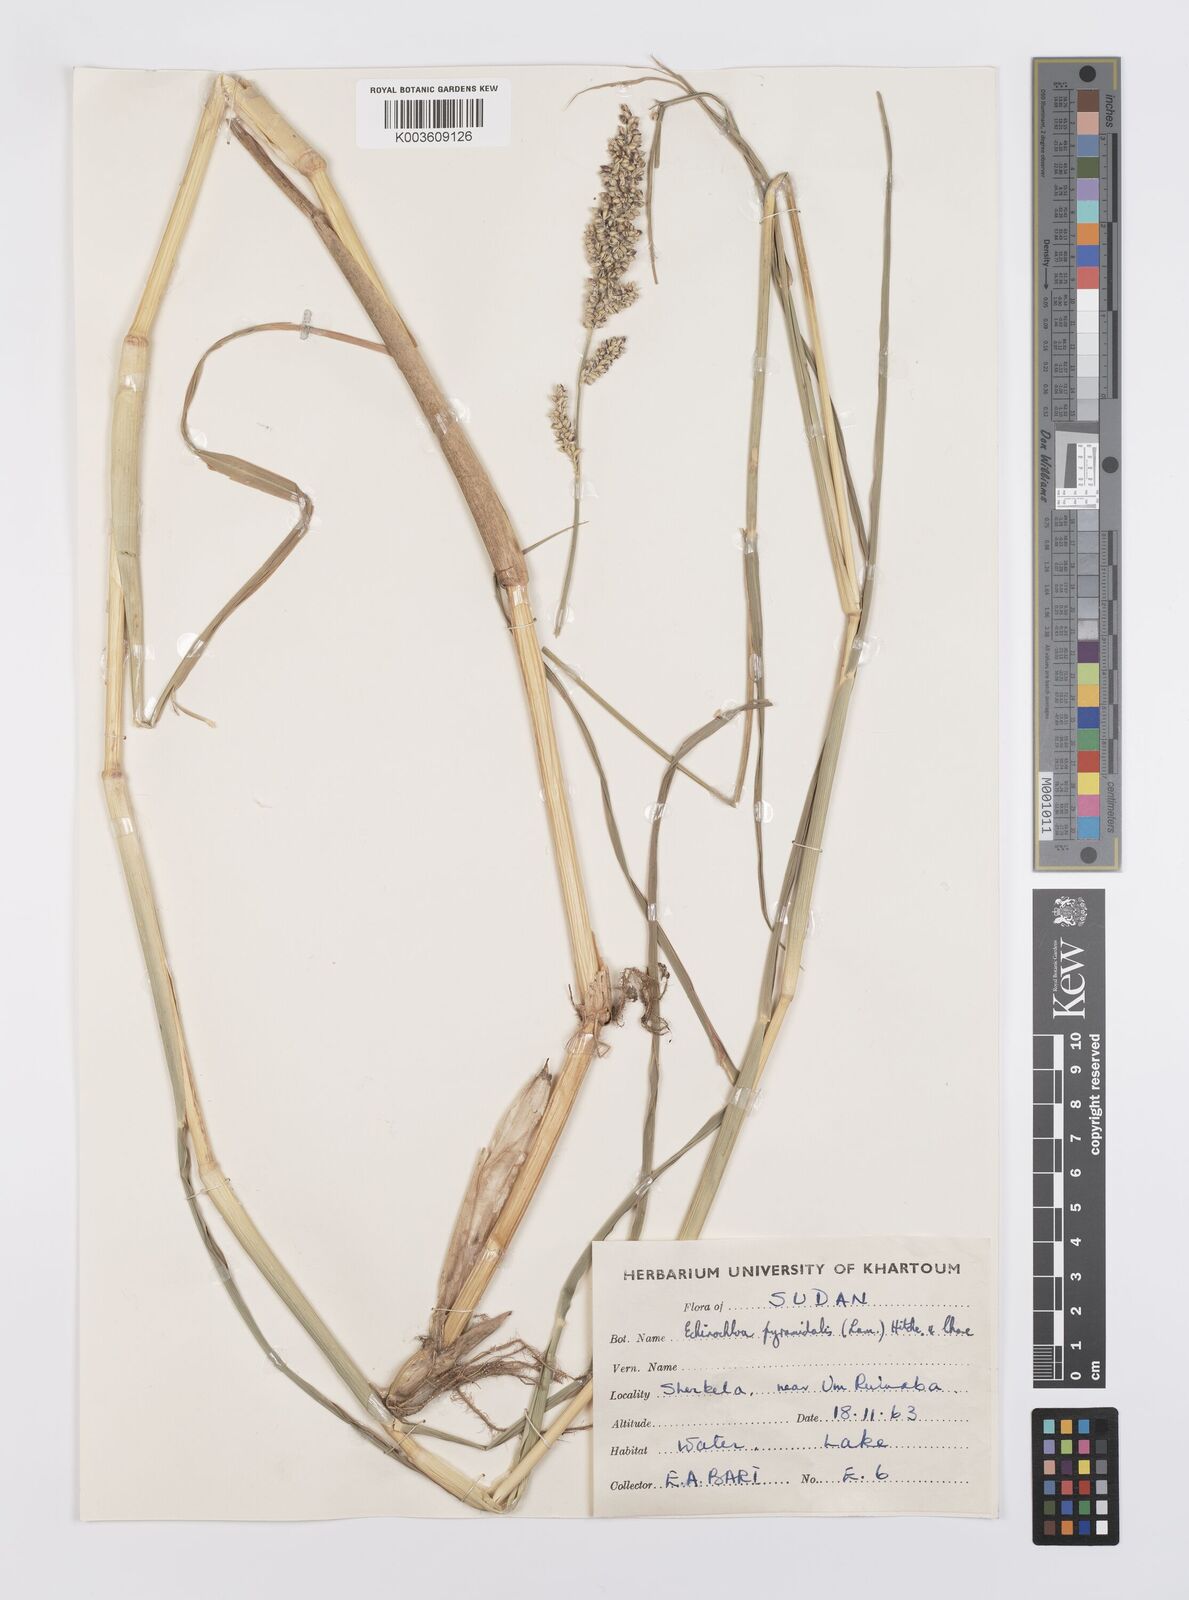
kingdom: Plantae
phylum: Tracheophyta
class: Liliopsida
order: Poales
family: Poaceae
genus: Echinochloa
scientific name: Echinochloa pyramidalis
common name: Antelope grass
